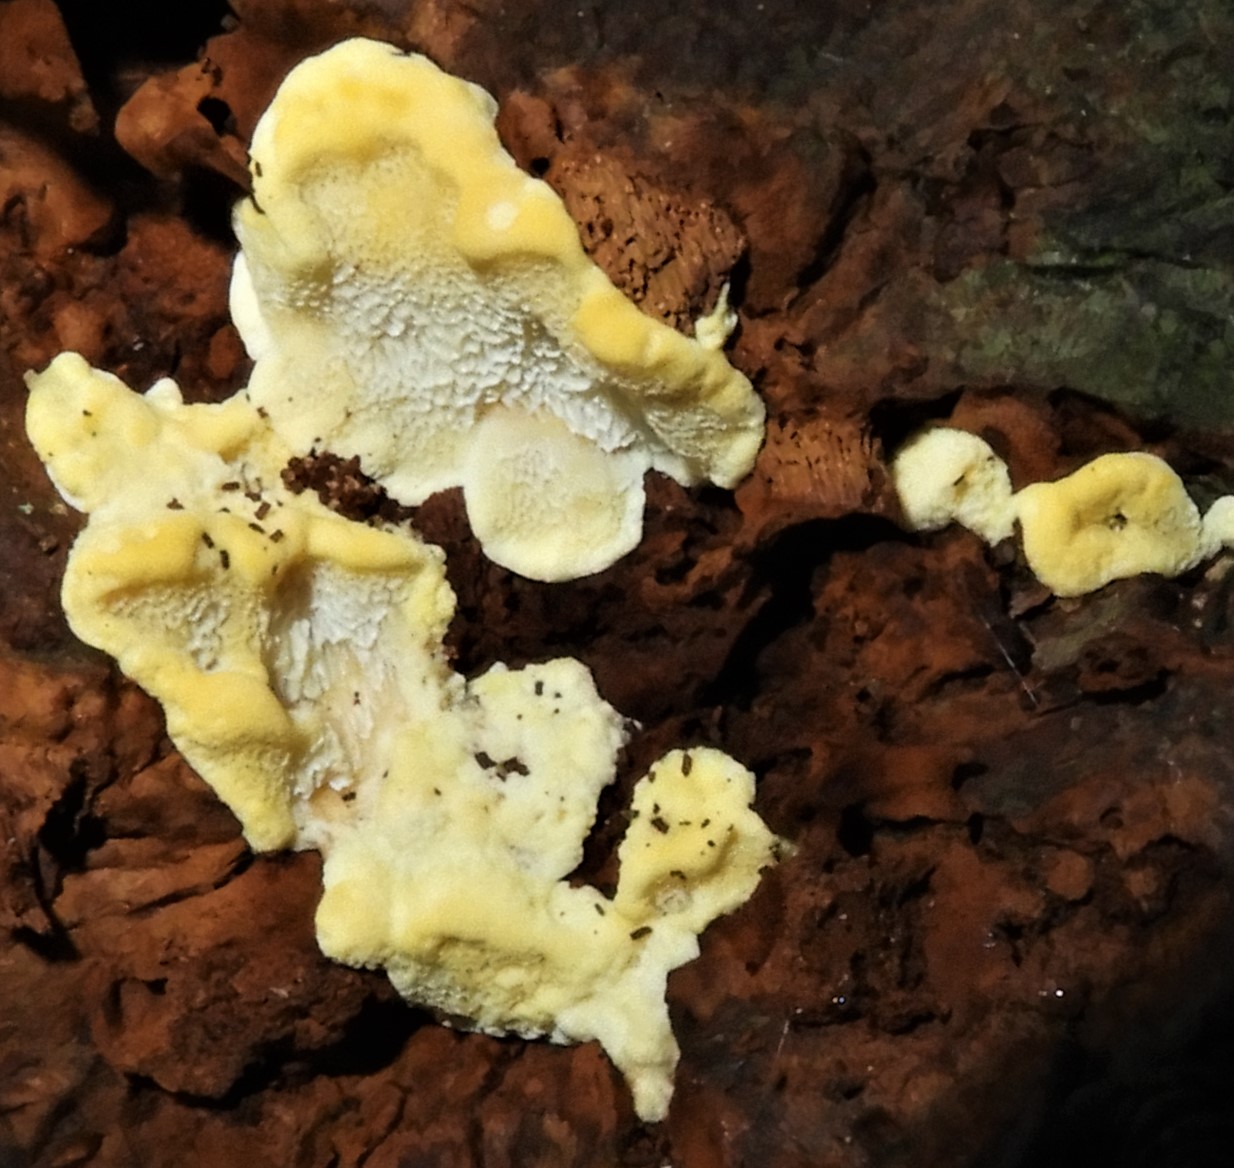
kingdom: Fungi
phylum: Basidiomycota
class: Agaricomycetes
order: Polyporales
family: Steccherinaceae
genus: Antrodiella
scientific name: Antrodiella serpula
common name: gulrandet elastikporesvamp
